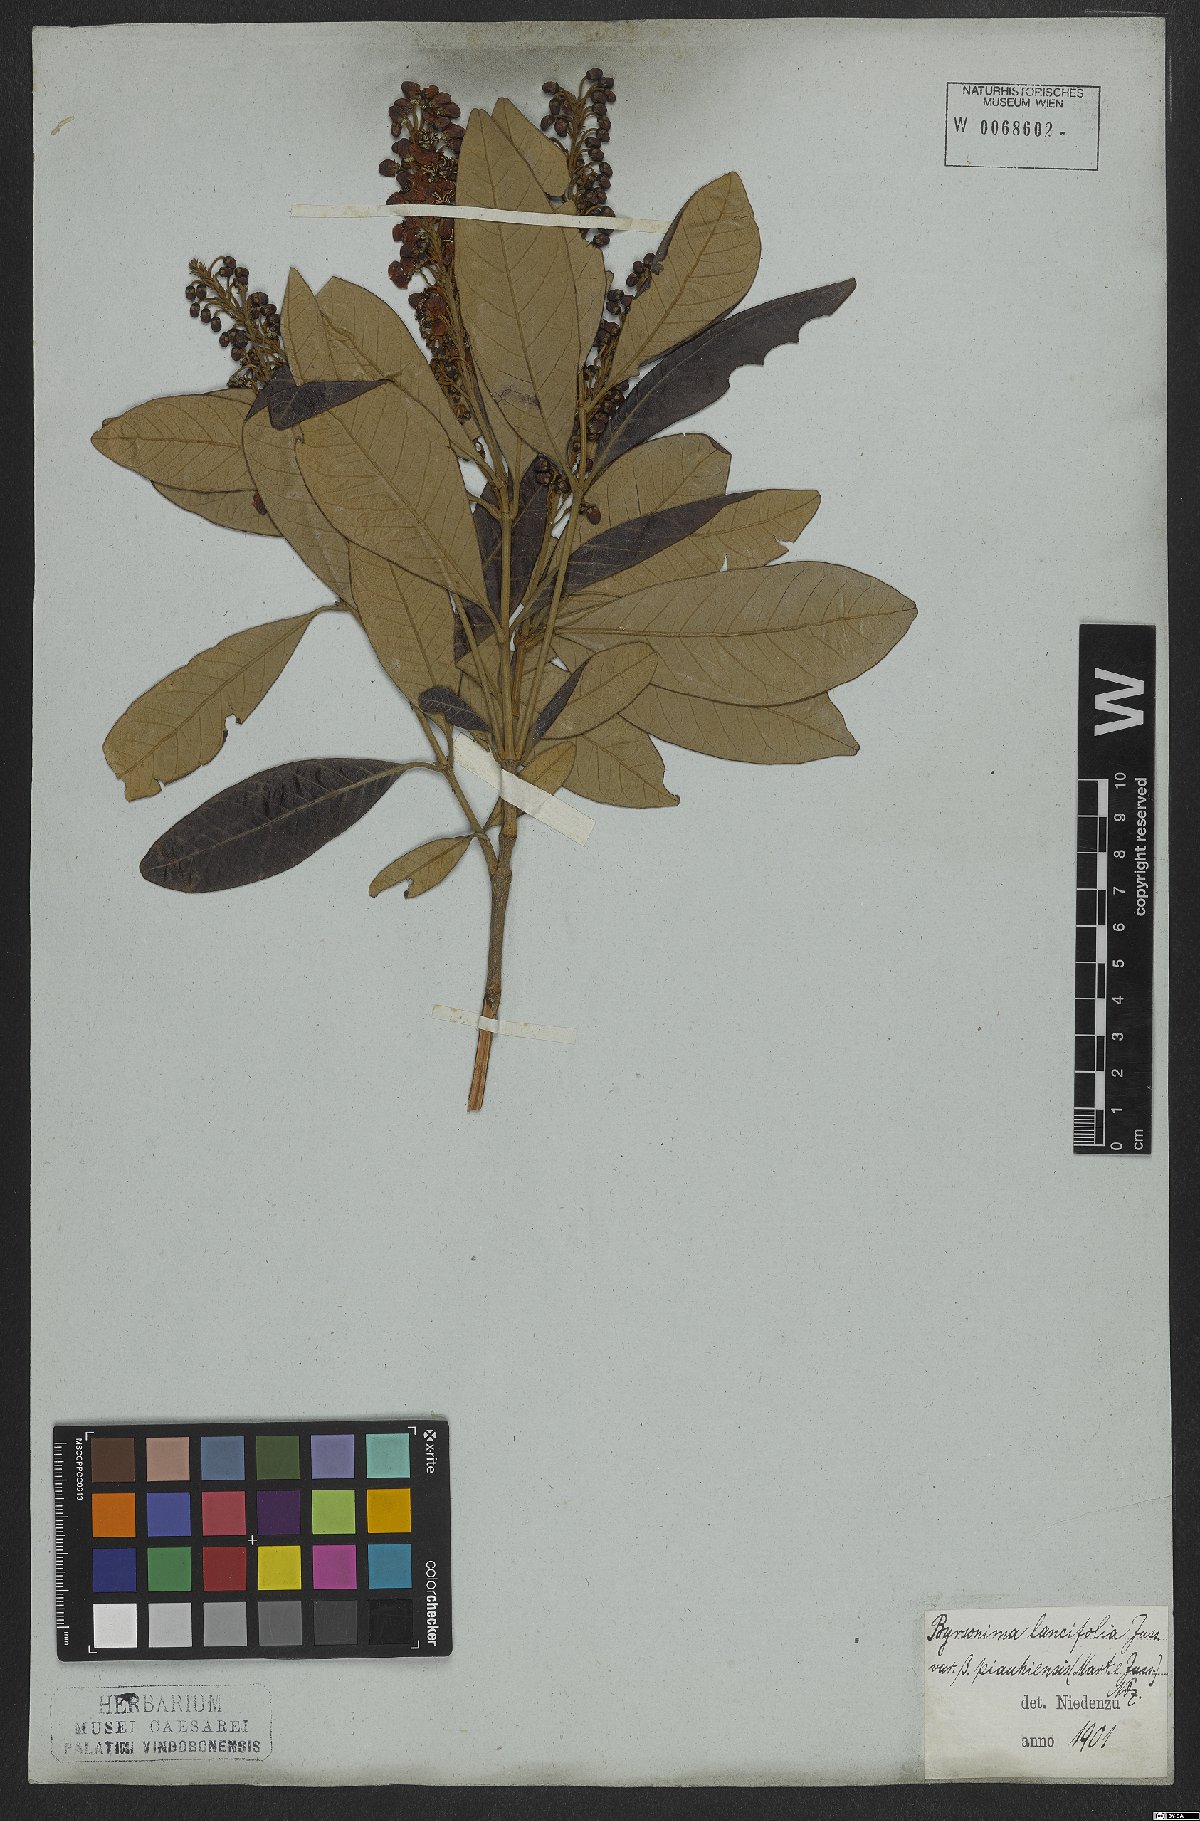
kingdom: Plantae
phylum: Tracheophyta
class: Magnoliopsida
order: Malpighiales
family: Malpighiaceae
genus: Byrsonima
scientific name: Byrsonima lancifolia
